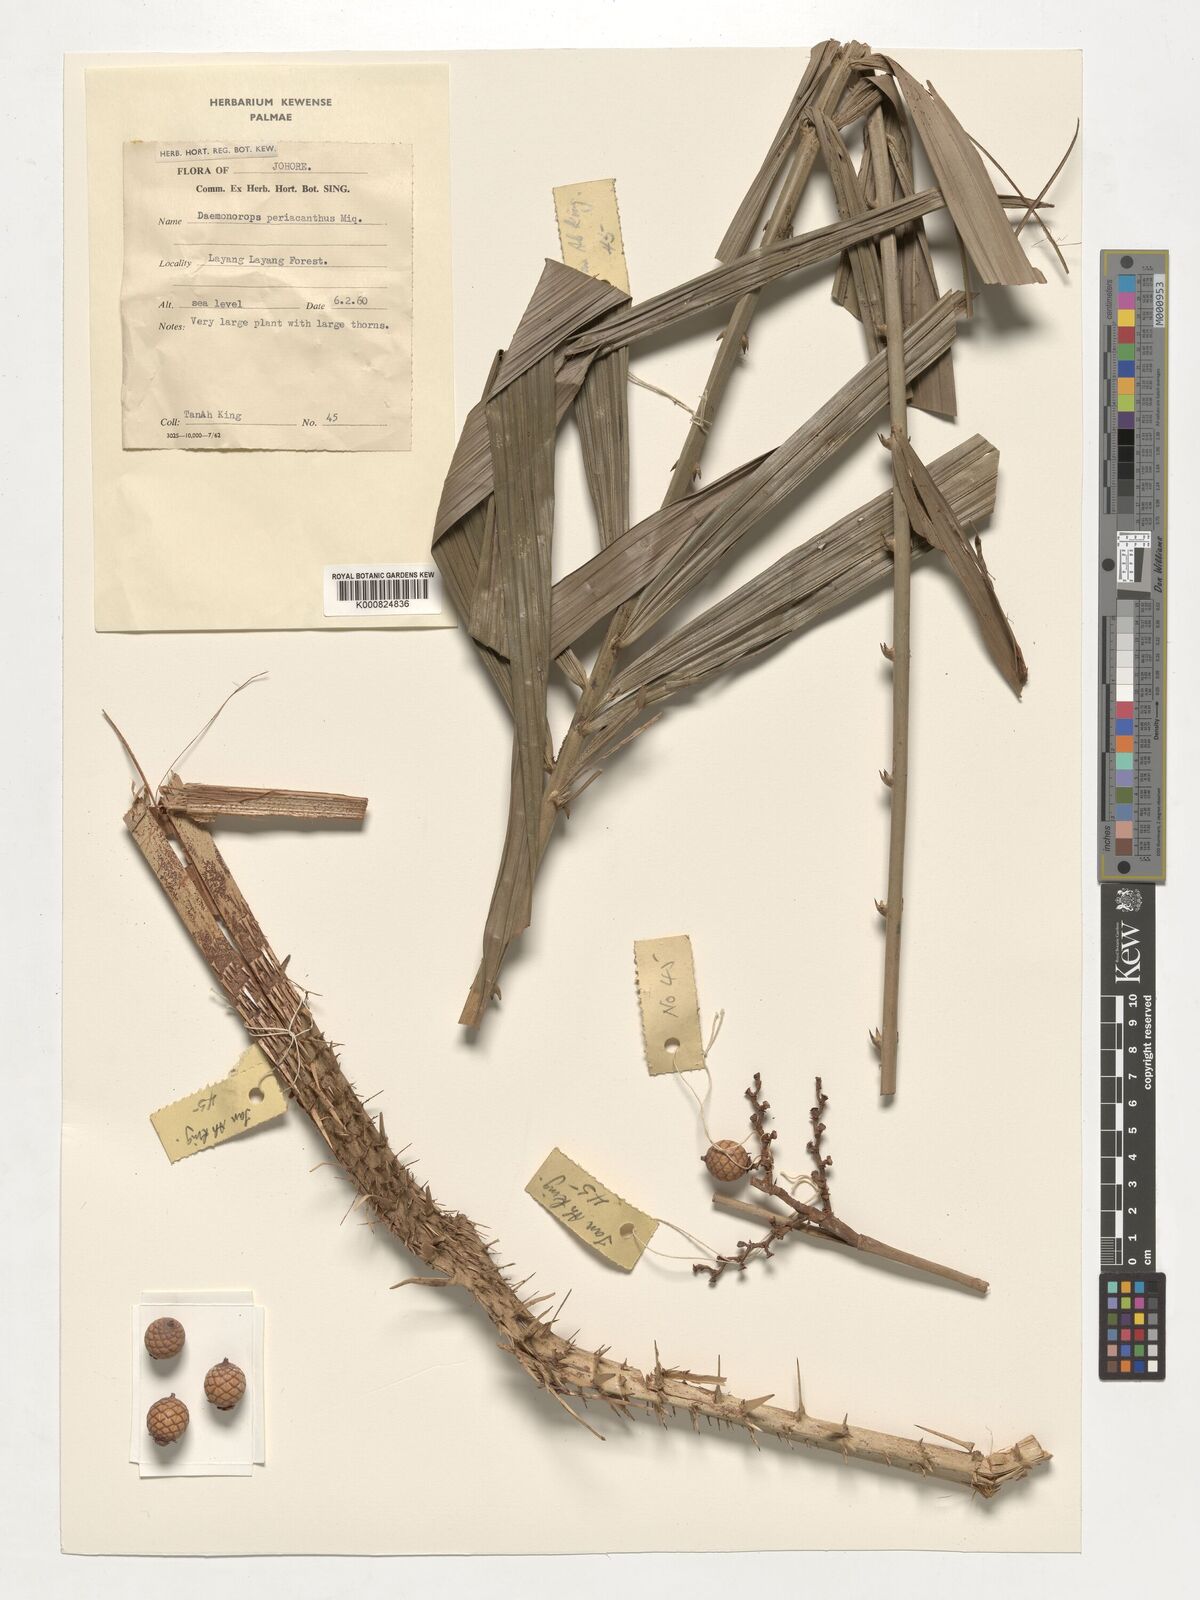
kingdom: Plantae
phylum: Tracheophyta
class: Liliopsida
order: Arecales
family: Arecaceae
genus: Calamus
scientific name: Calamus periacanthus
